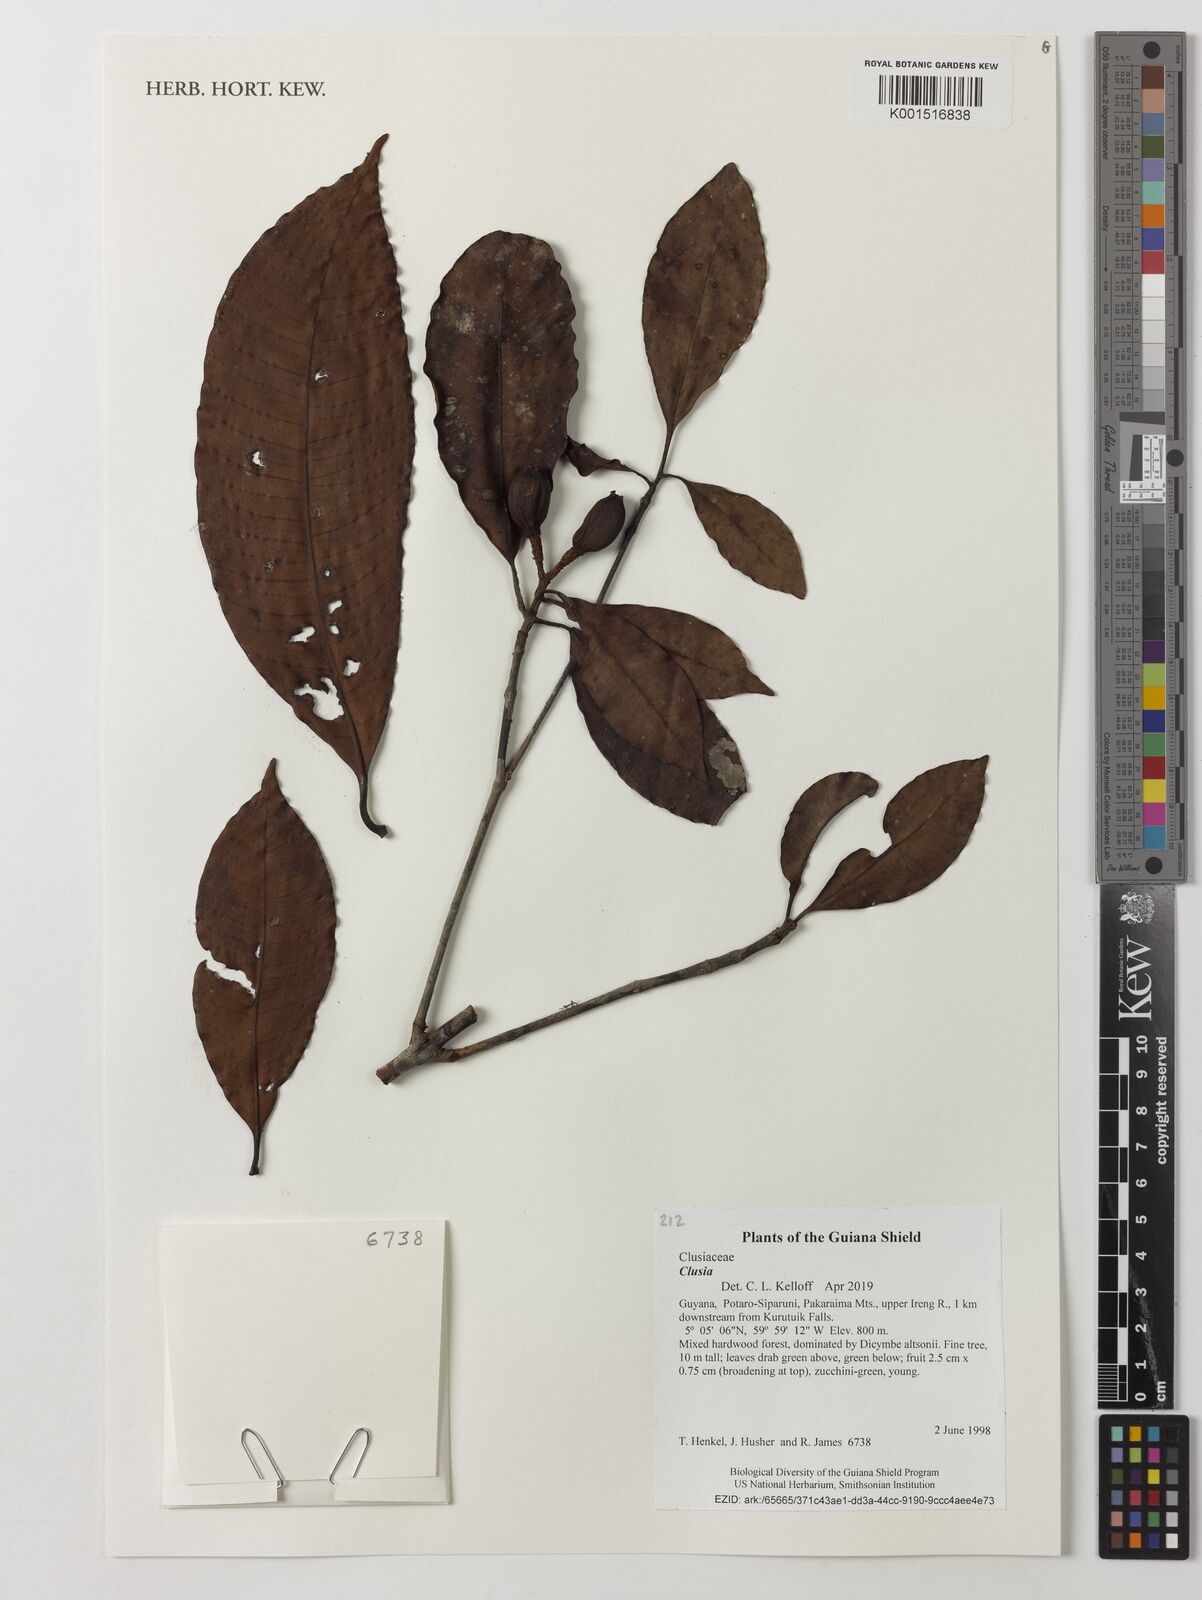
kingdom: Plantae
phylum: Tracheophyta
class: Magnoliopsida
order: Malpighiales
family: Clusiaceae
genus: Clusia
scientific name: Clusia
